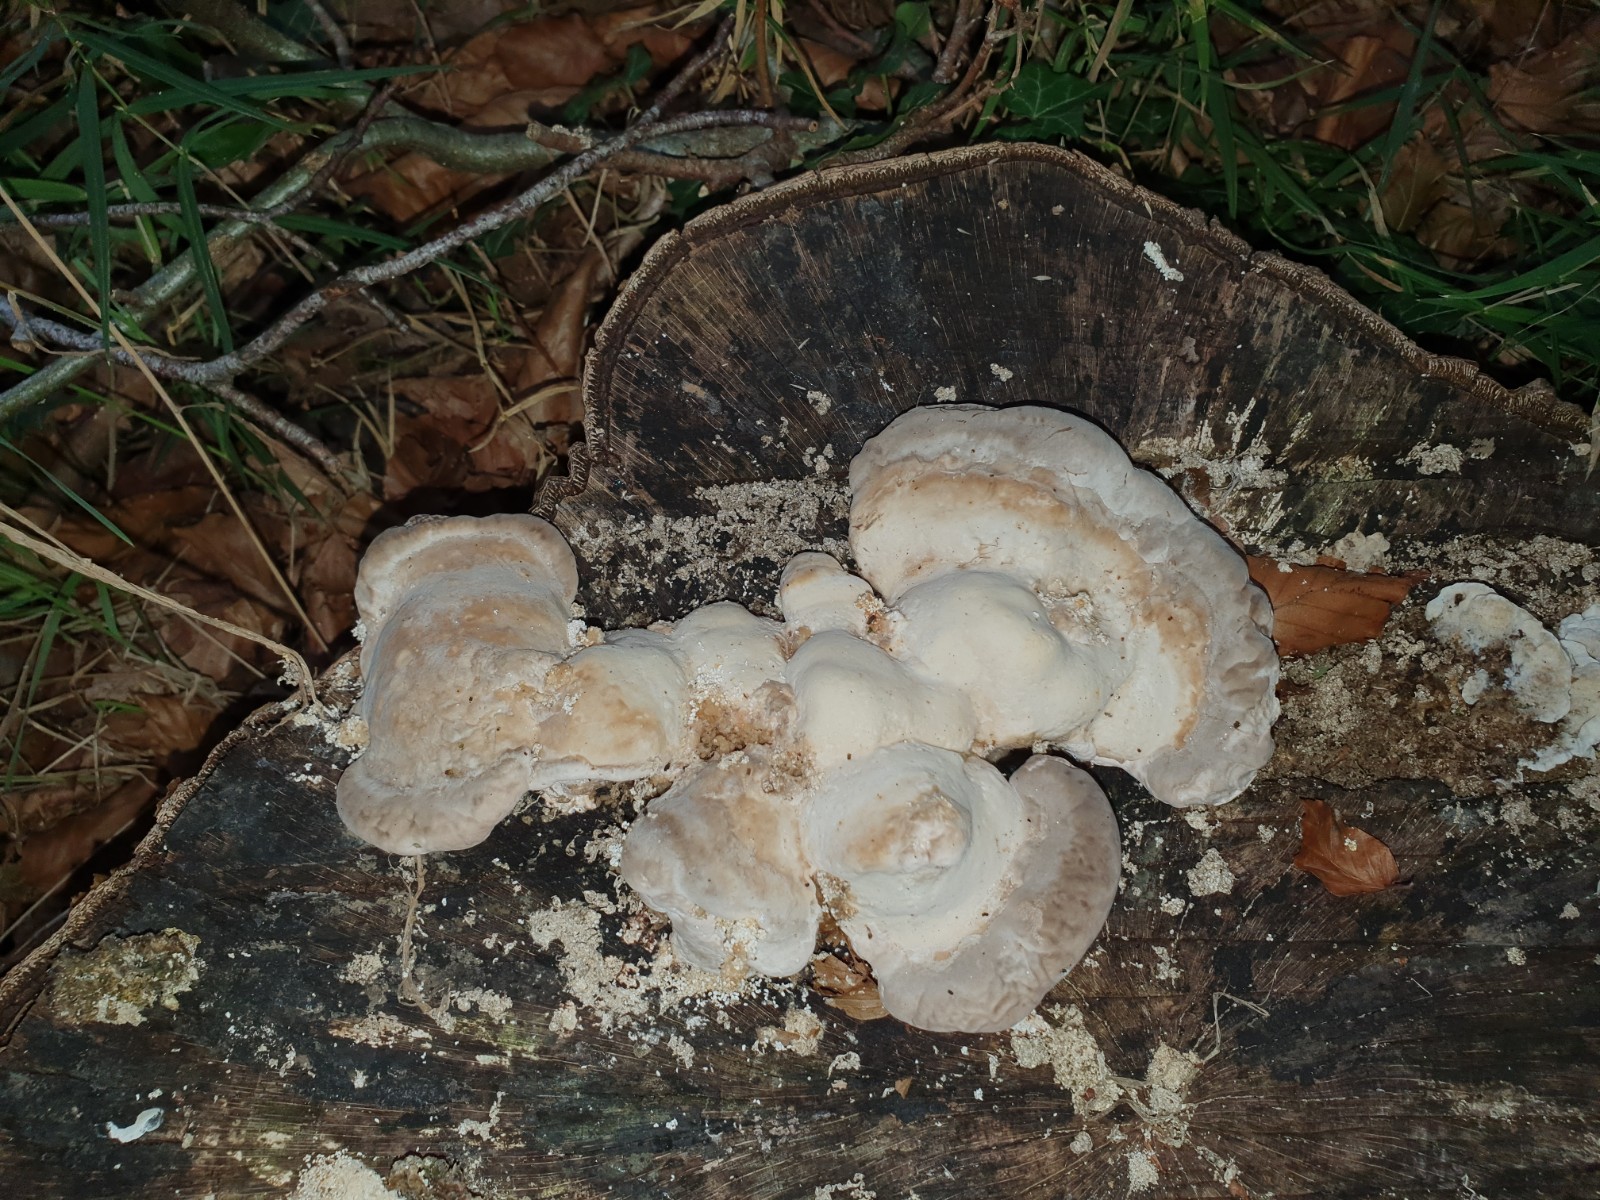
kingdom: Fungi
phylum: Basidiomycota
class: Agaricomycetes
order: Polyporales
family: Polyporaceae
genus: Trametes
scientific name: Trametes gibbosa
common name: puklet læderporesvamp
